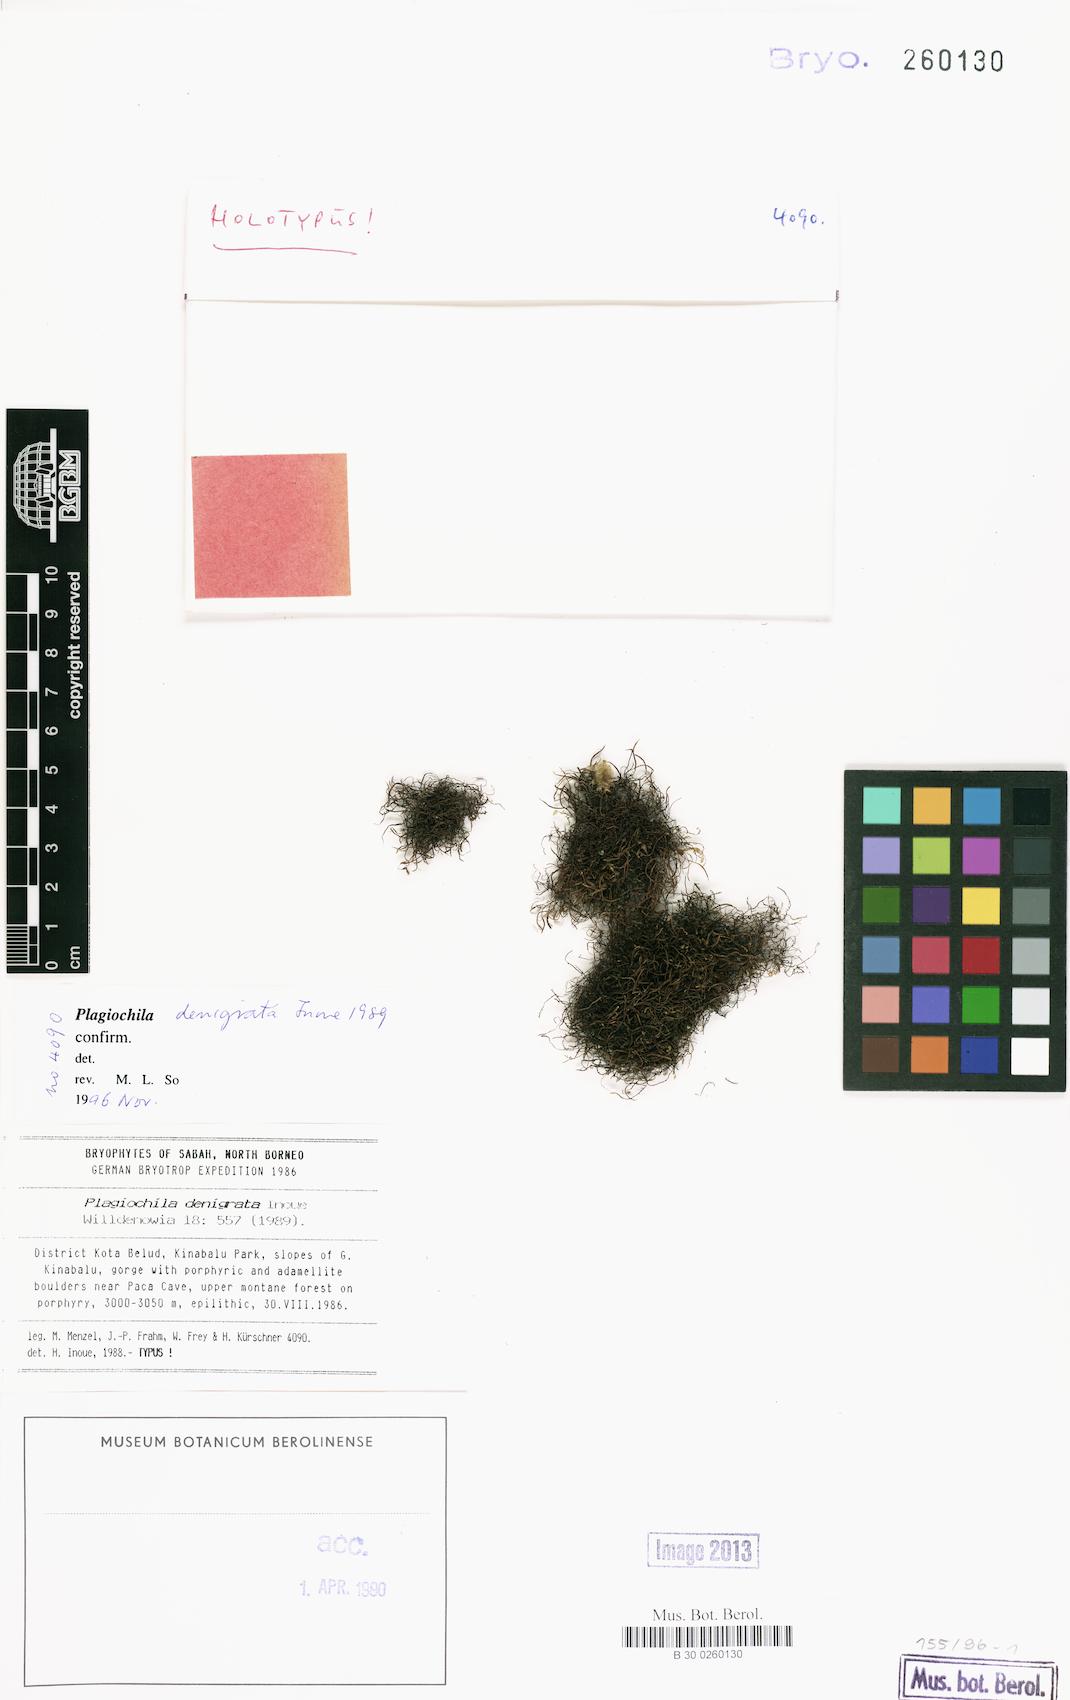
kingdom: Plantae
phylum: Marchantiophyta
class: Jungermanniopsida
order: Jungermanniales
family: Plagiochilaceae
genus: Plagiochila
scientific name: Plagiochila denigrata
